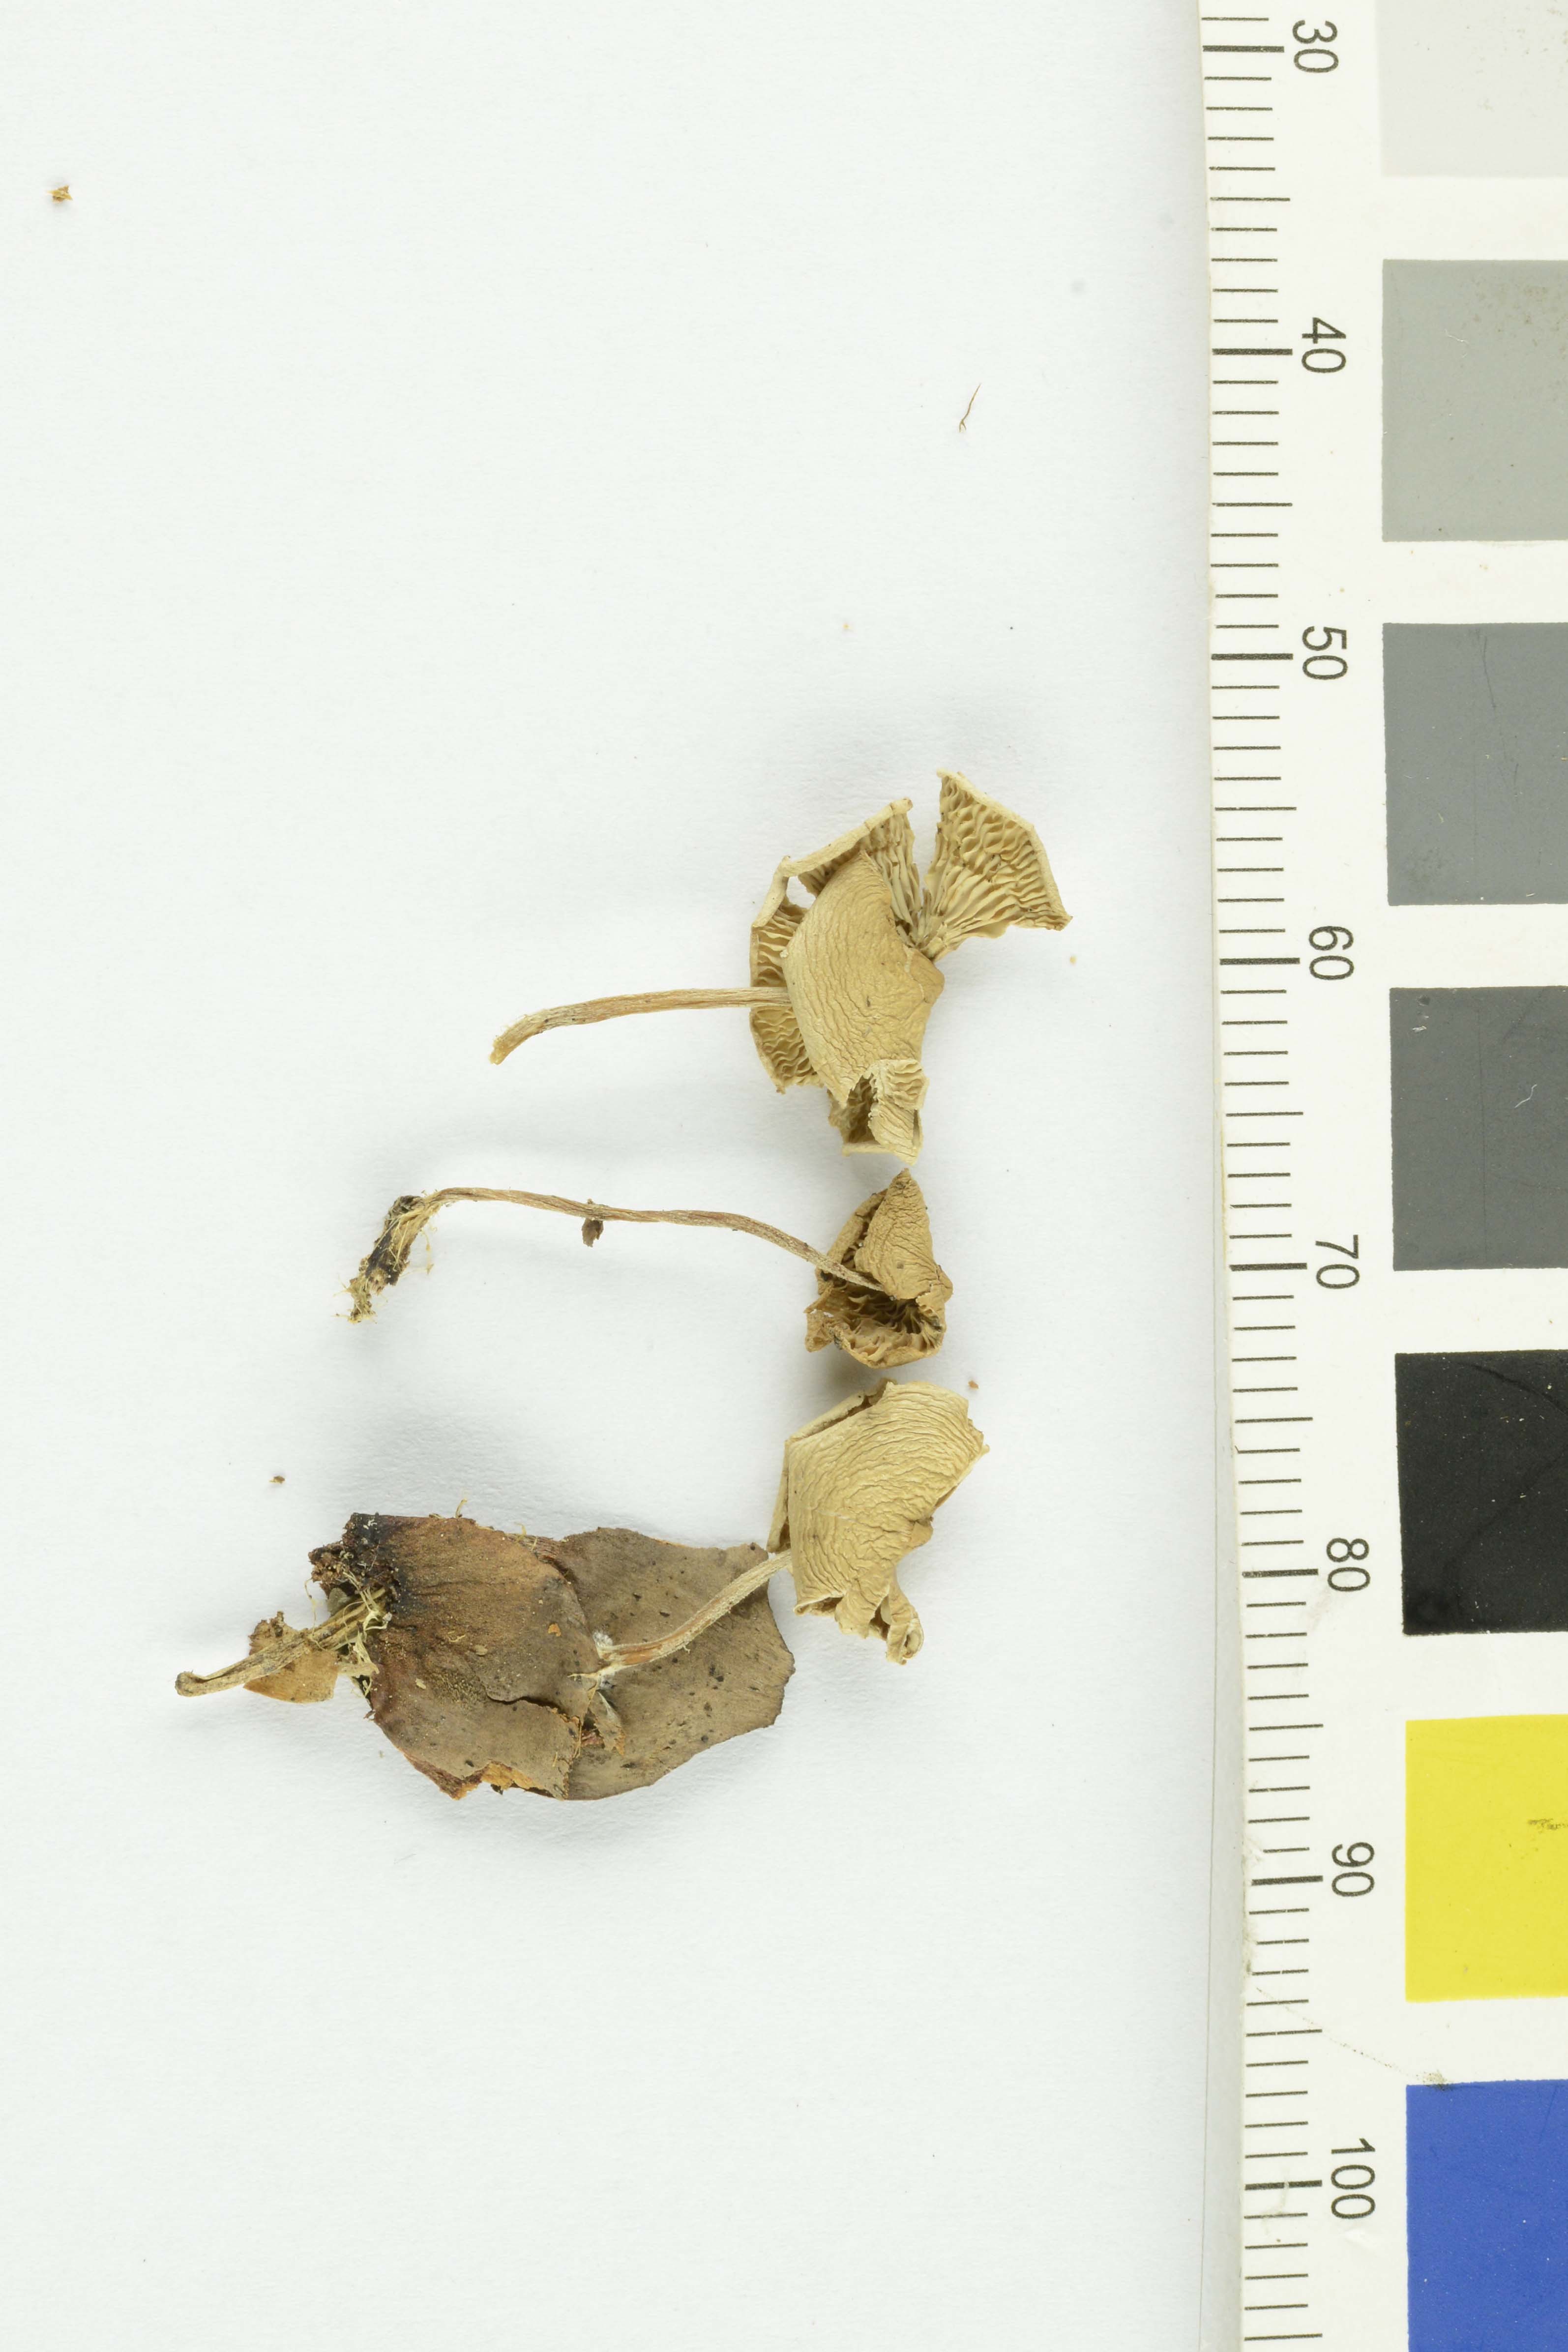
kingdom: Fungi
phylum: Basidiomycota
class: Agaricomycetes
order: Agaricales
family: Marasmiaceae
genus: Baeospora
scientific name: Baeospora myosura
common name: Conifercone cap
